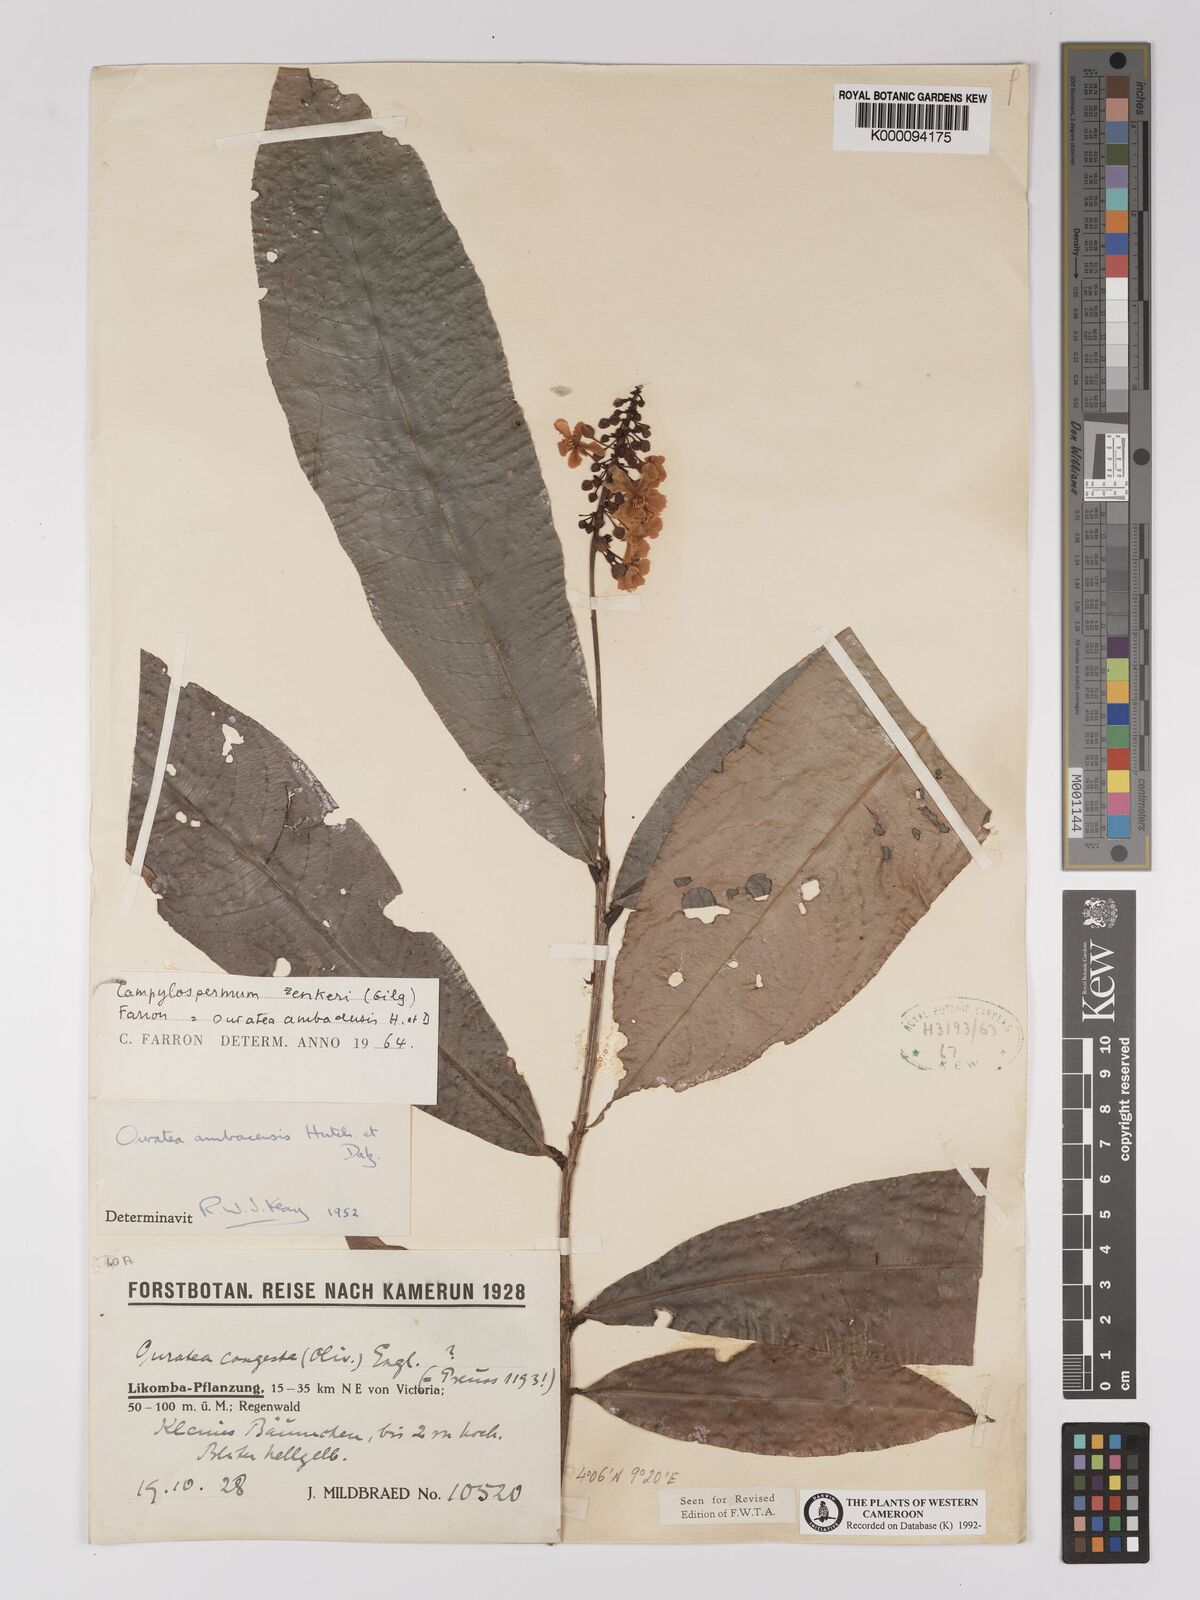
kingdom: Plantae
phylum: Tracheophyta
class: Magnoliopsida
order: Malpighiales
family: Ochnaceae
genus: Campylospermum
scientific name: Campylospermum zenkeri
